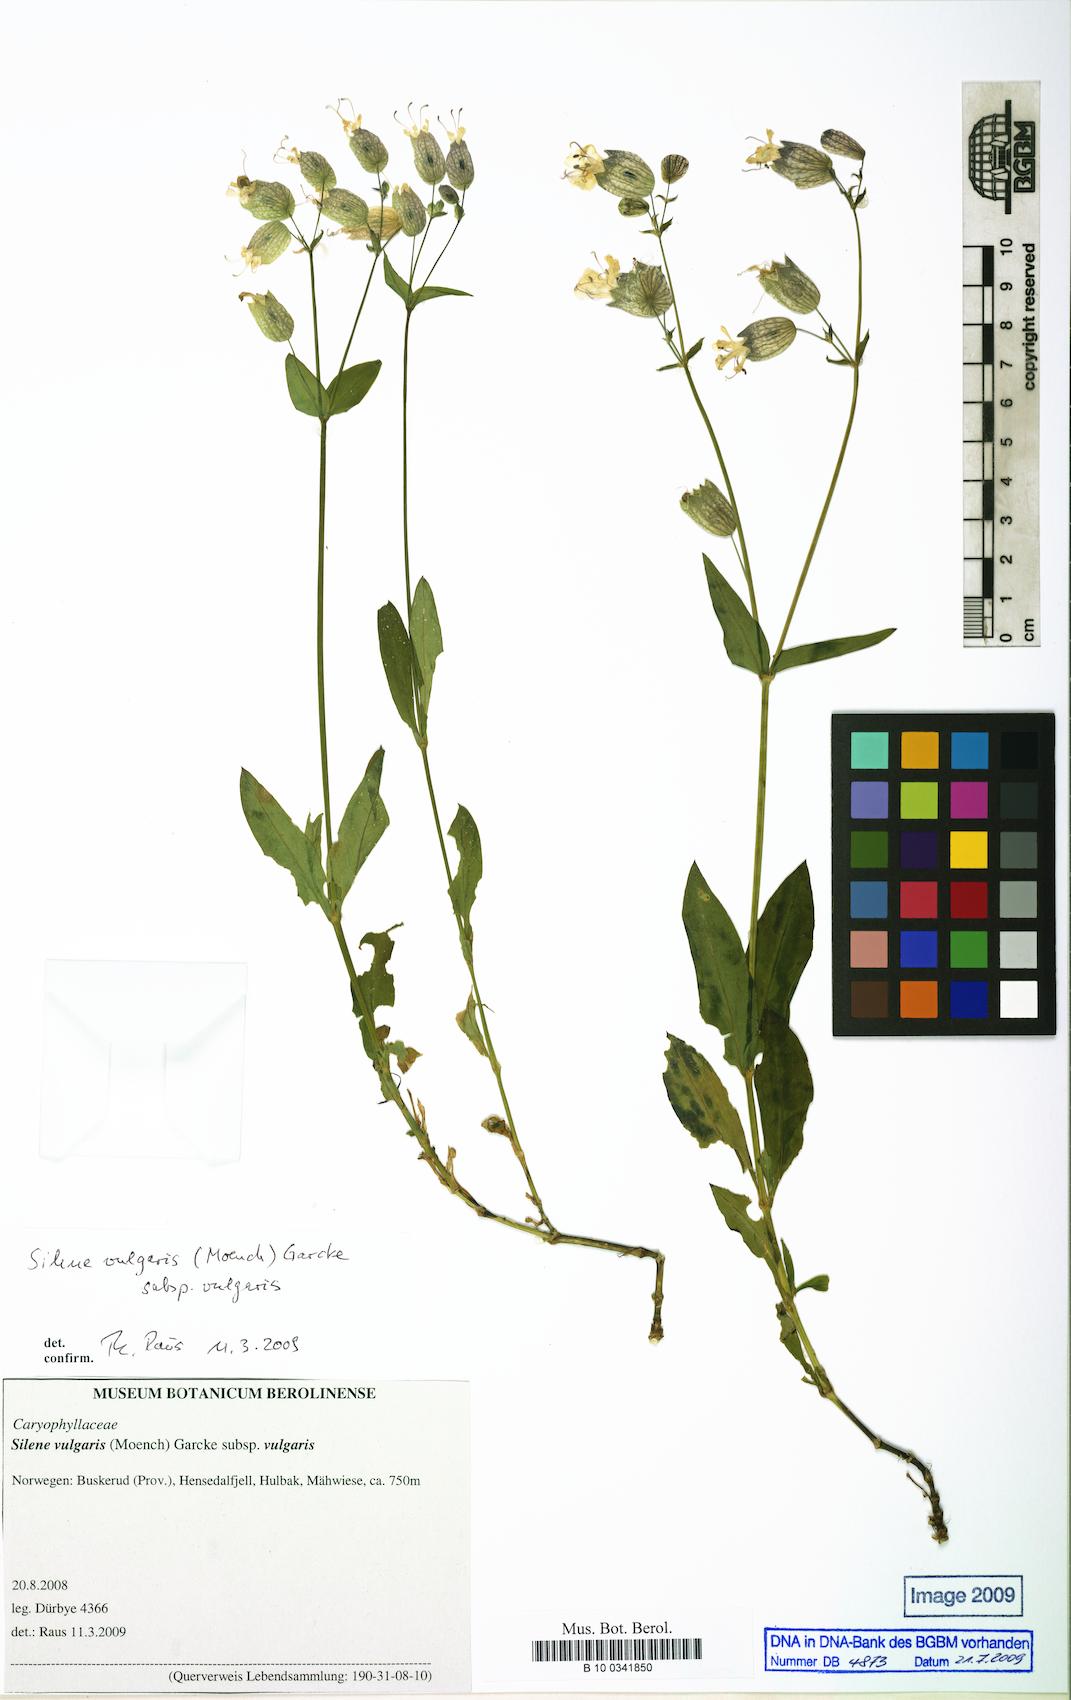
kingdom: Plantae
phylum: Tracheophyta
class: Magnoliopsida
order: Caryophyllales
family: Caryophyllaceae
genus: Silene
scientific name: Silene vulgaris
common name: Bladder campion
